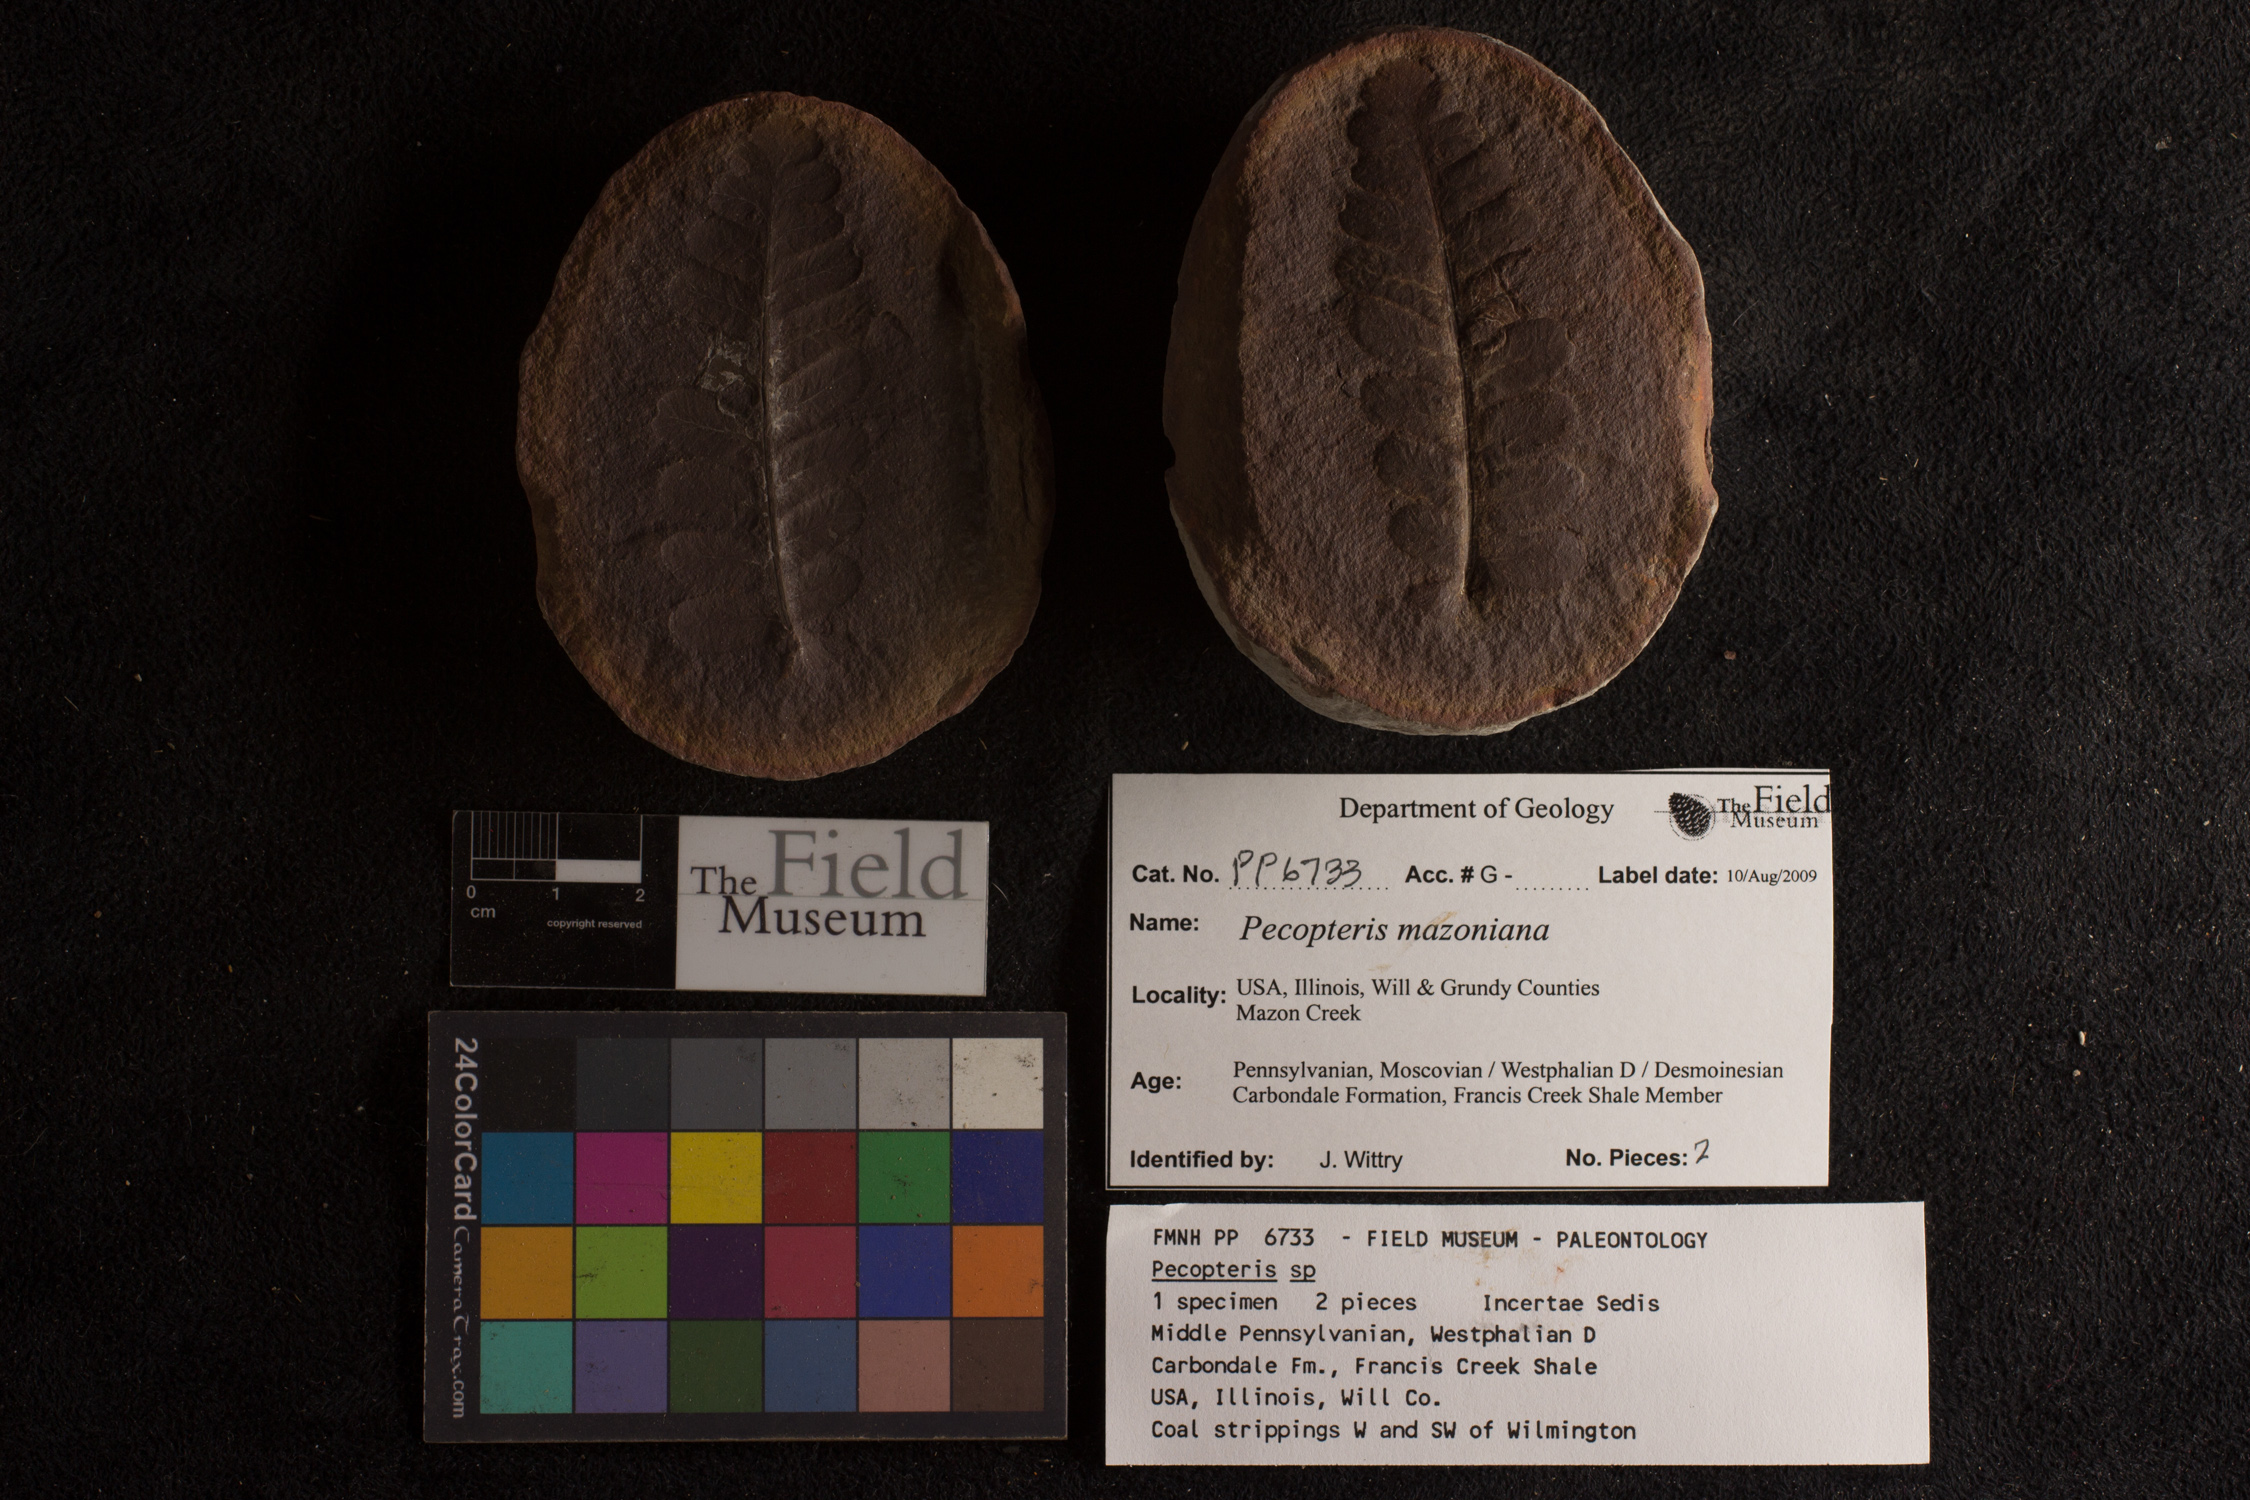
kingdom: Plantae
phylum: Tracheophyta
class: Polypodiopsida
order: Marattiales
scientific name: Marattiales
